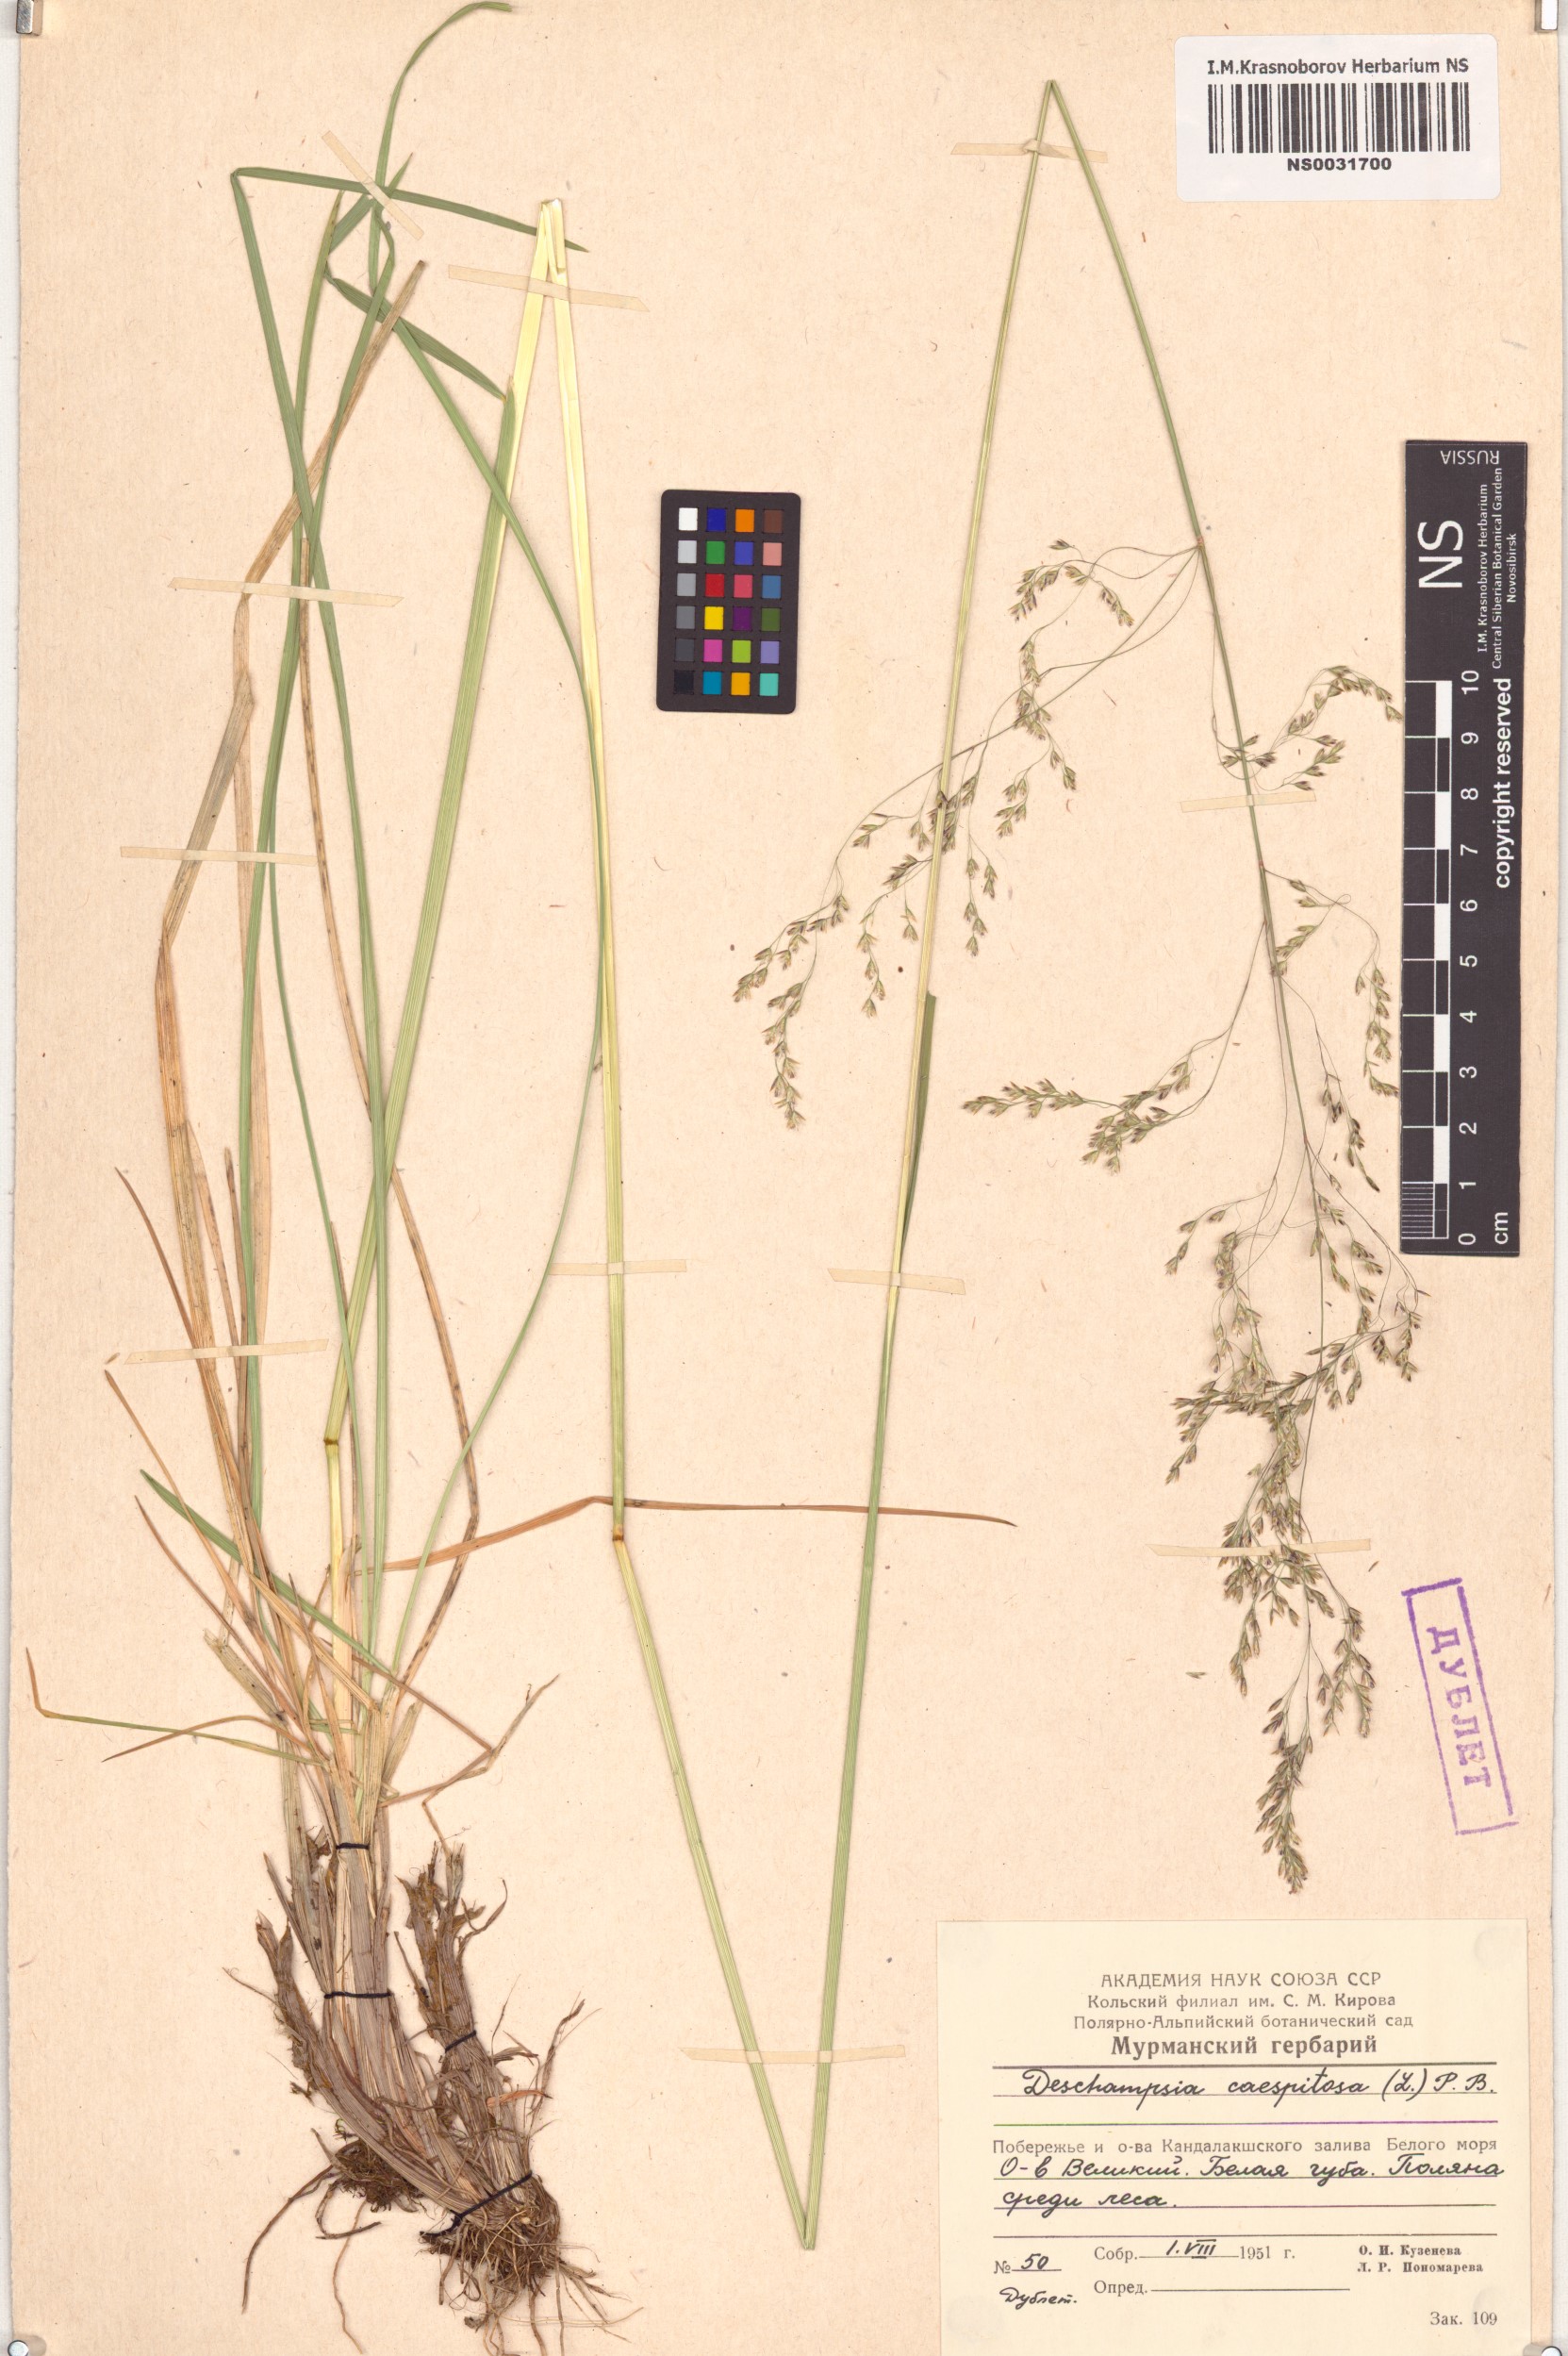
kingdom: Plantae
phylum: Tracheophyta
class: Liliopsida
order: Poales
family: Poaceae
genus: Deschampsia
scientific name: Deschampsia cespitosa
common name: Tufted hair-grass
